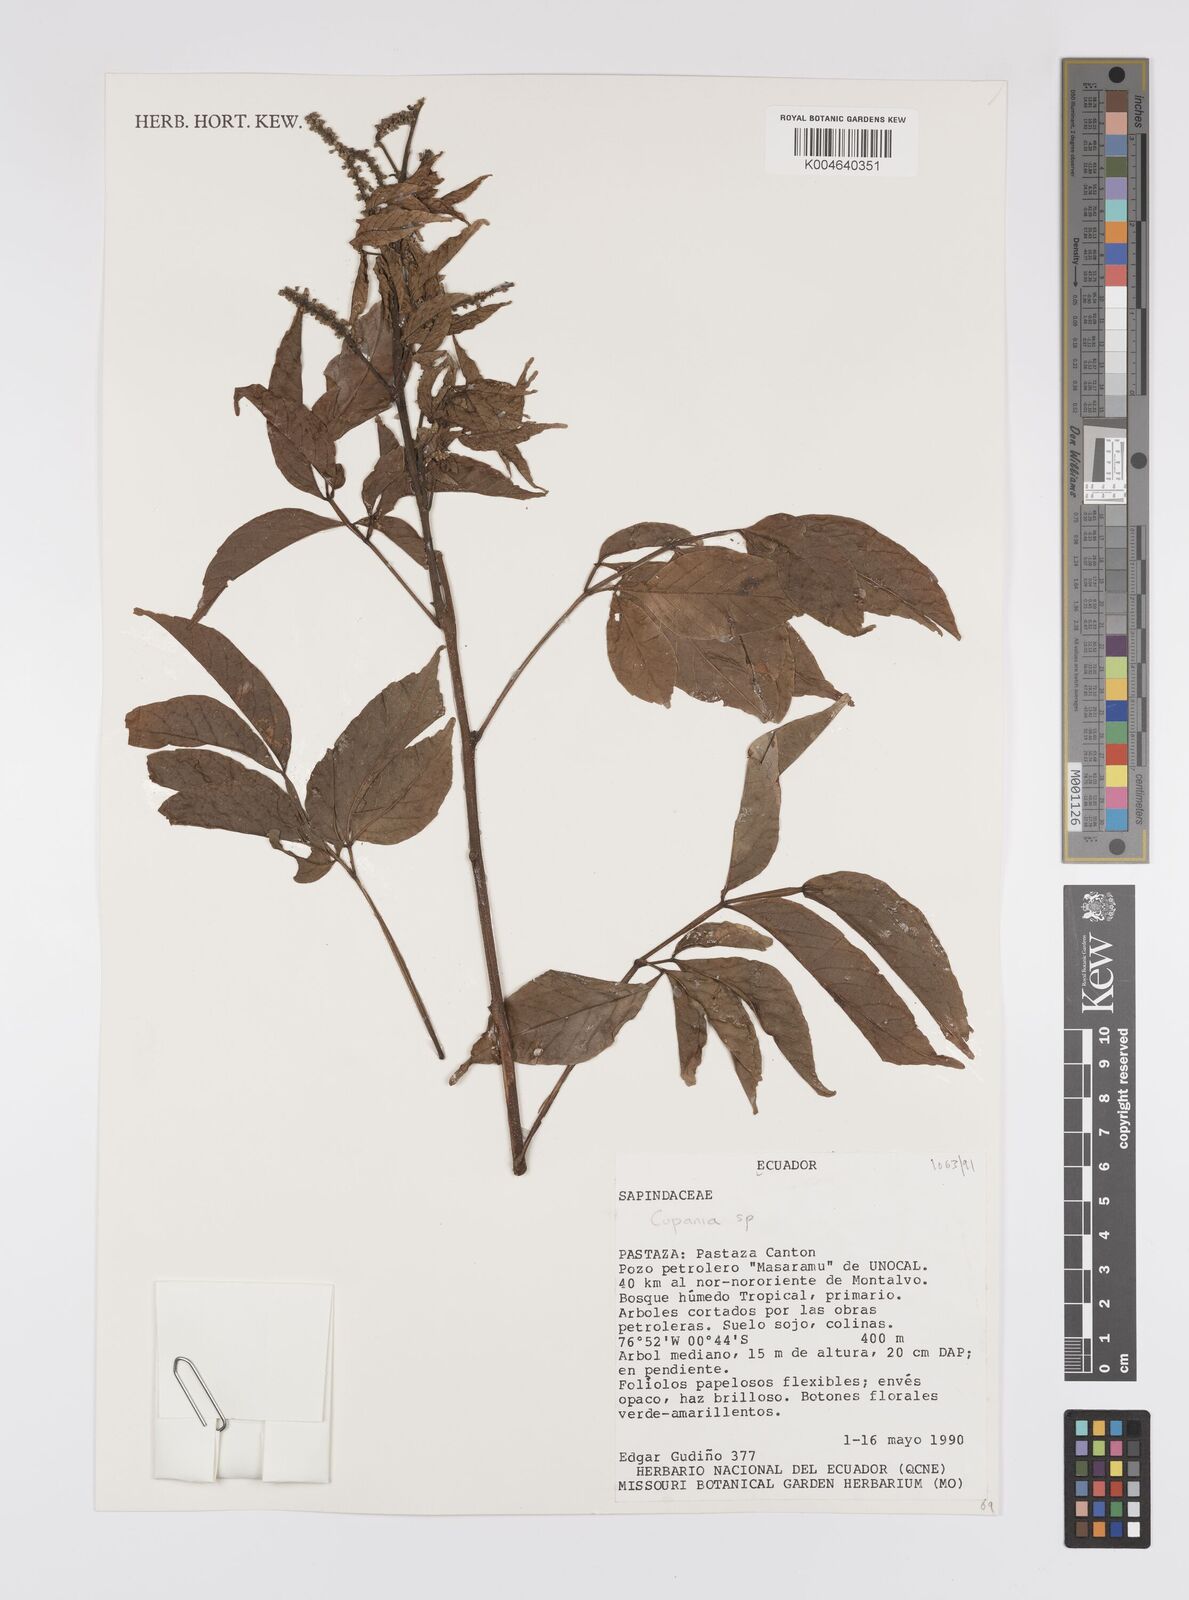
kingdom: Plantae
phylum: Tracheophyta
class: Magnoliopsida
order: Sapindales
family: Sapindaceae
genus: Cupania
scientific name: Cupania
